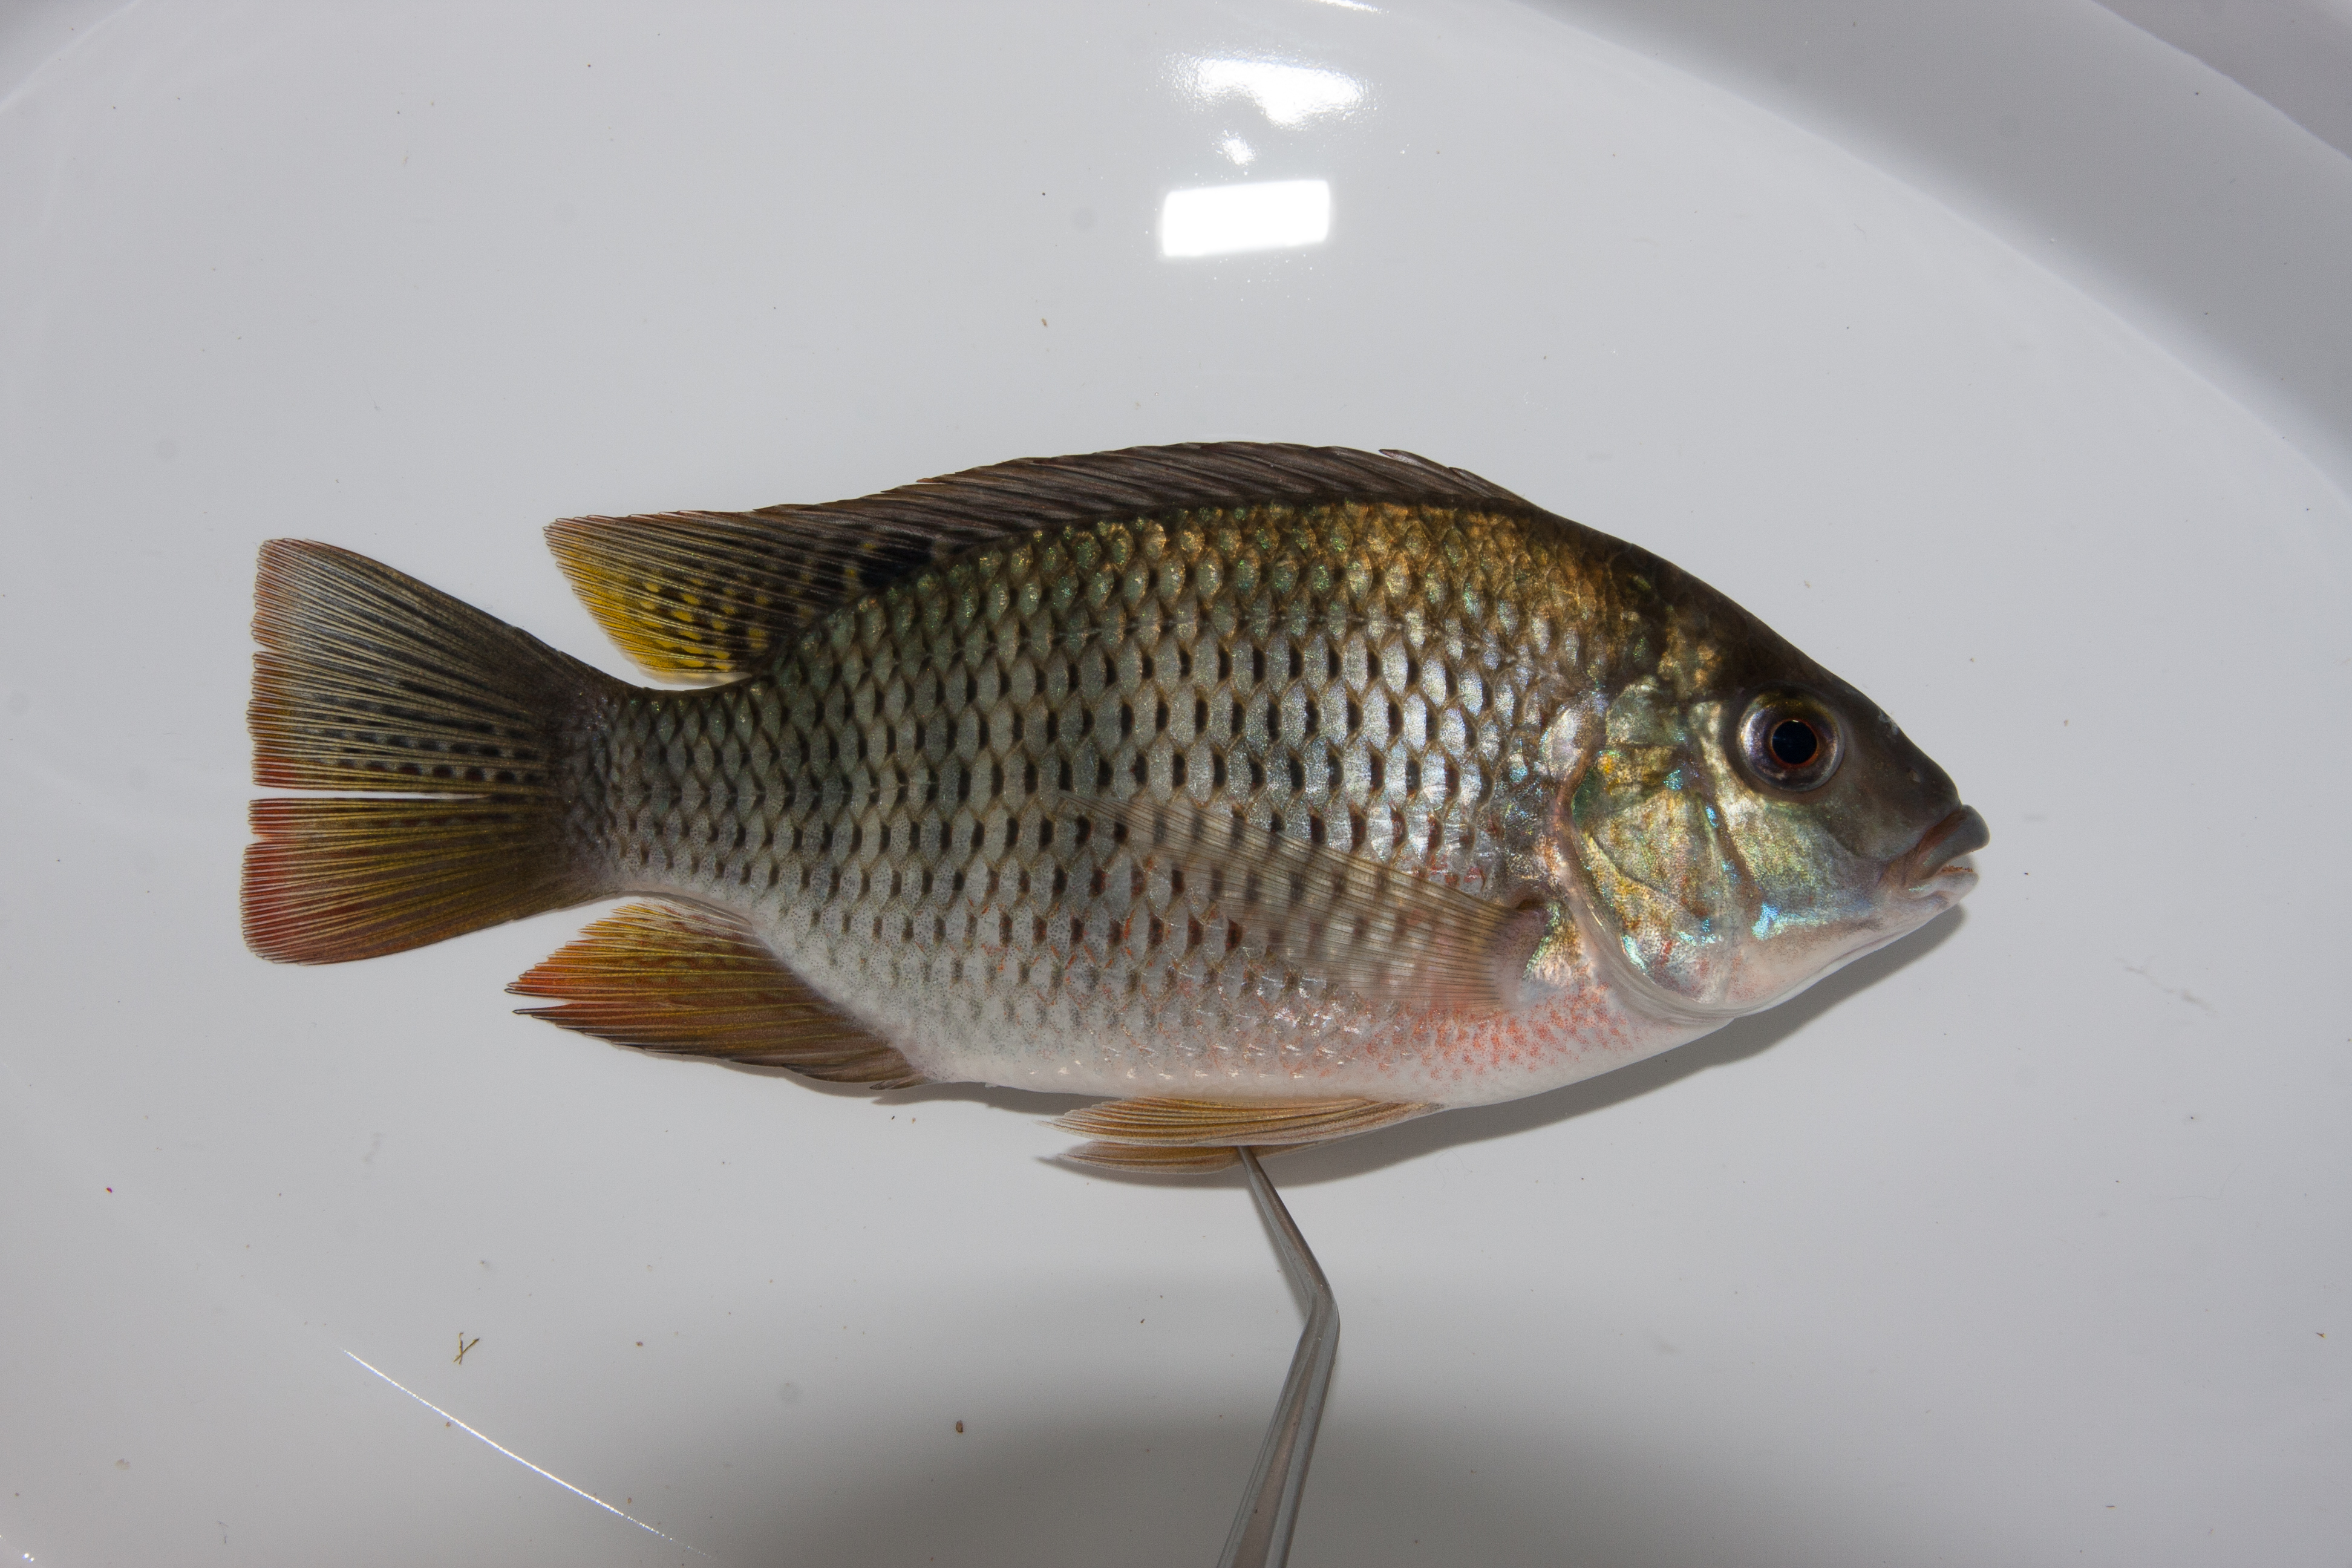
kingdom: Animalia
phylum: Chordata
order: Perciformes
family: Cichlidae
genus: Coptodon
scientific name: Coptodon rendalli
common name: Redbreast tilapia
